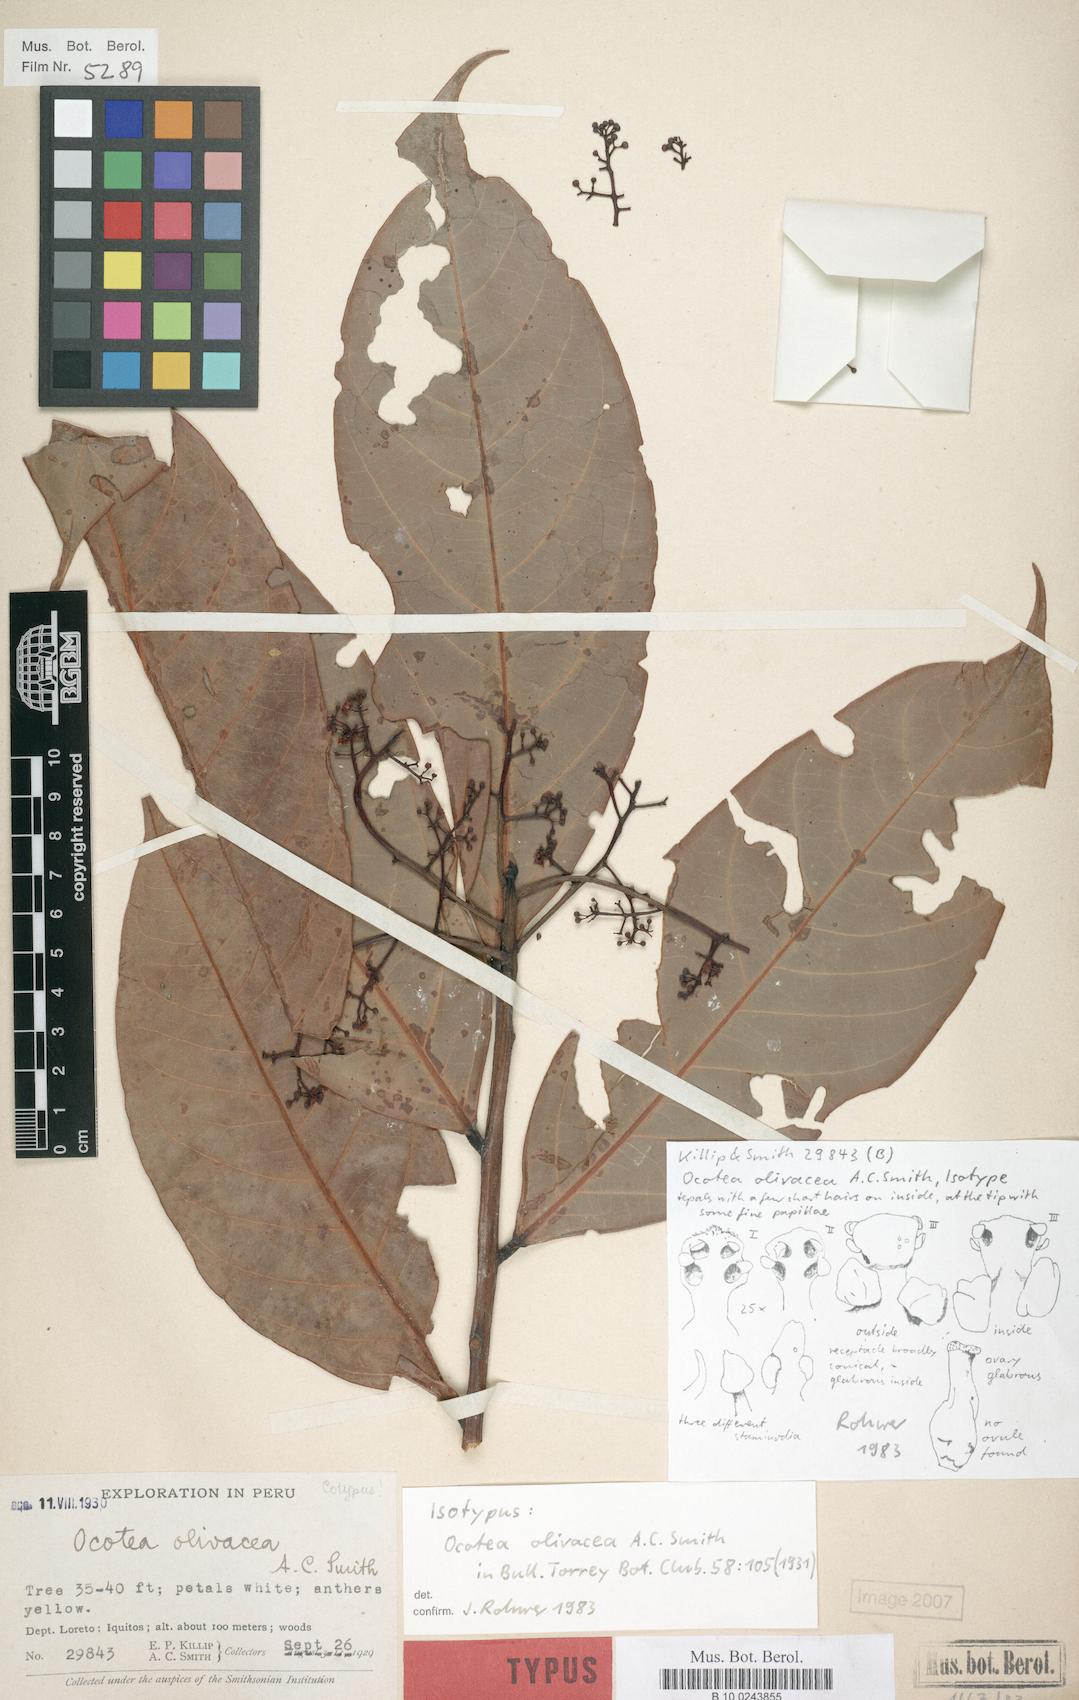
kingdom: Plantae
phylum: Tracheophyta
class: Magnoliopsida
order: Laurales
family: Lauraceae
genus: Ocotea
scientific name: Ocotea olivacea
